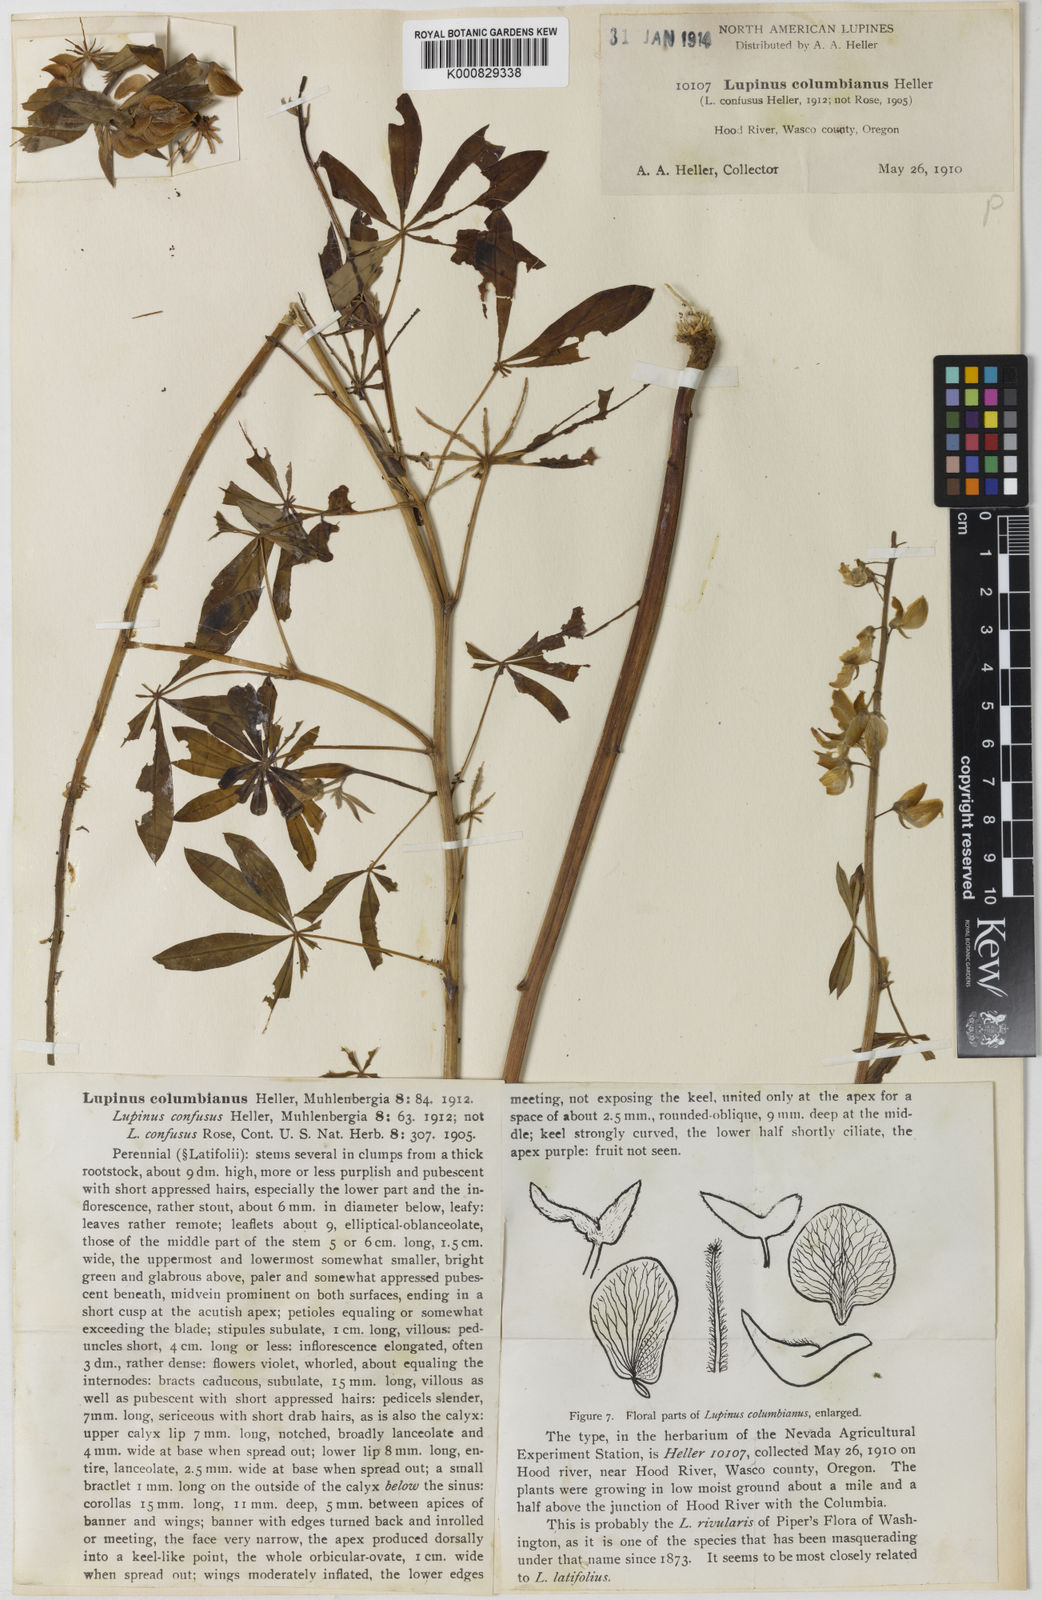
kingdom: Plantae
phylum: Tracheophyta
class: Magnoliopsida
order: Fabales
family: Fabaceae
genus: Lupinus
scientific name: Lupinus latifolius
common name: Broad-leaved lupine
